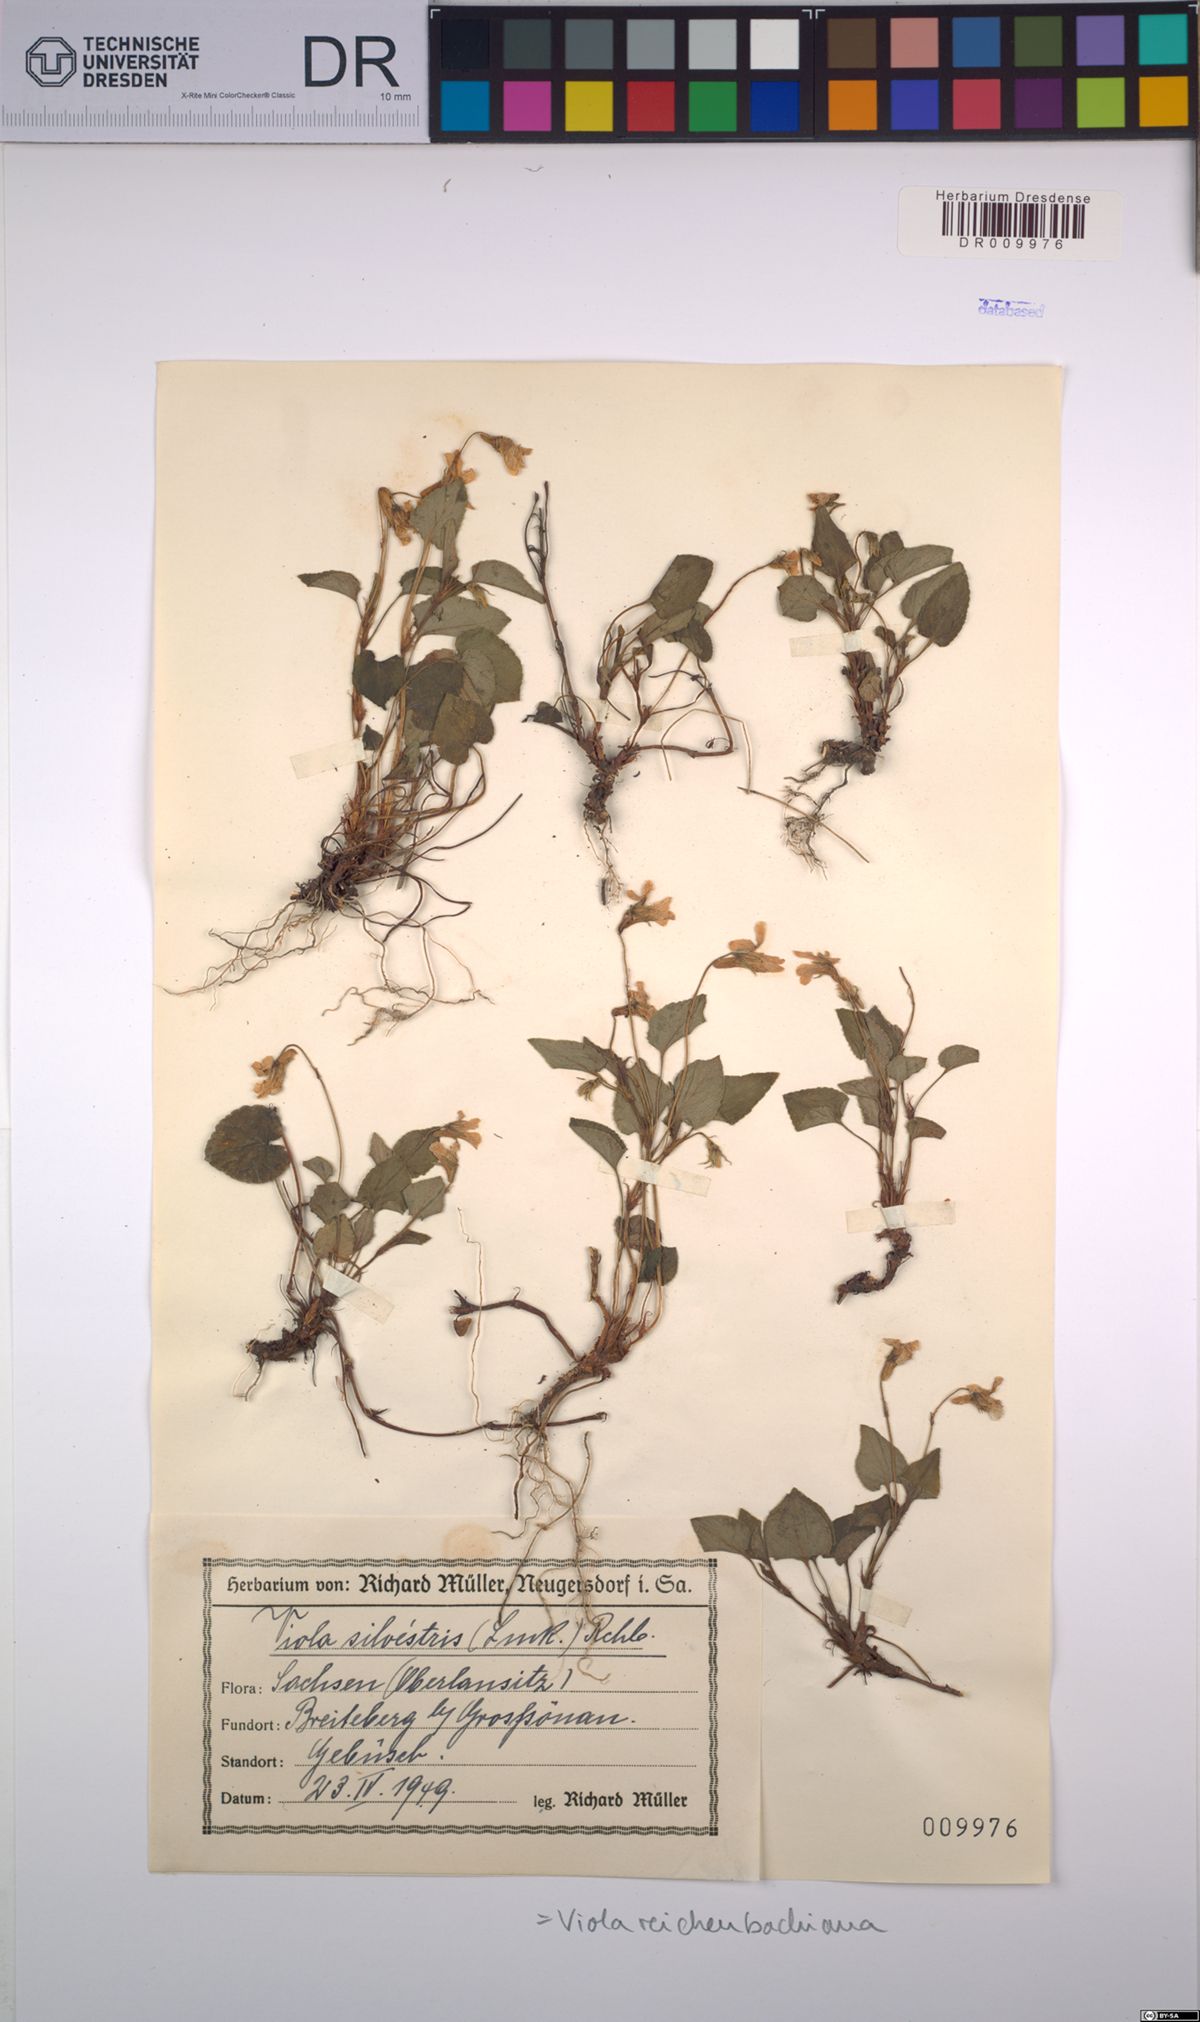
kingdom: Plantae
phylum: Tracheophyta
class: Magnoliopsida
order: Malpighiales
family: Violaceae
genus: Viola
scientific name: Viola reichenbachiana
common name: Early dog-violet
